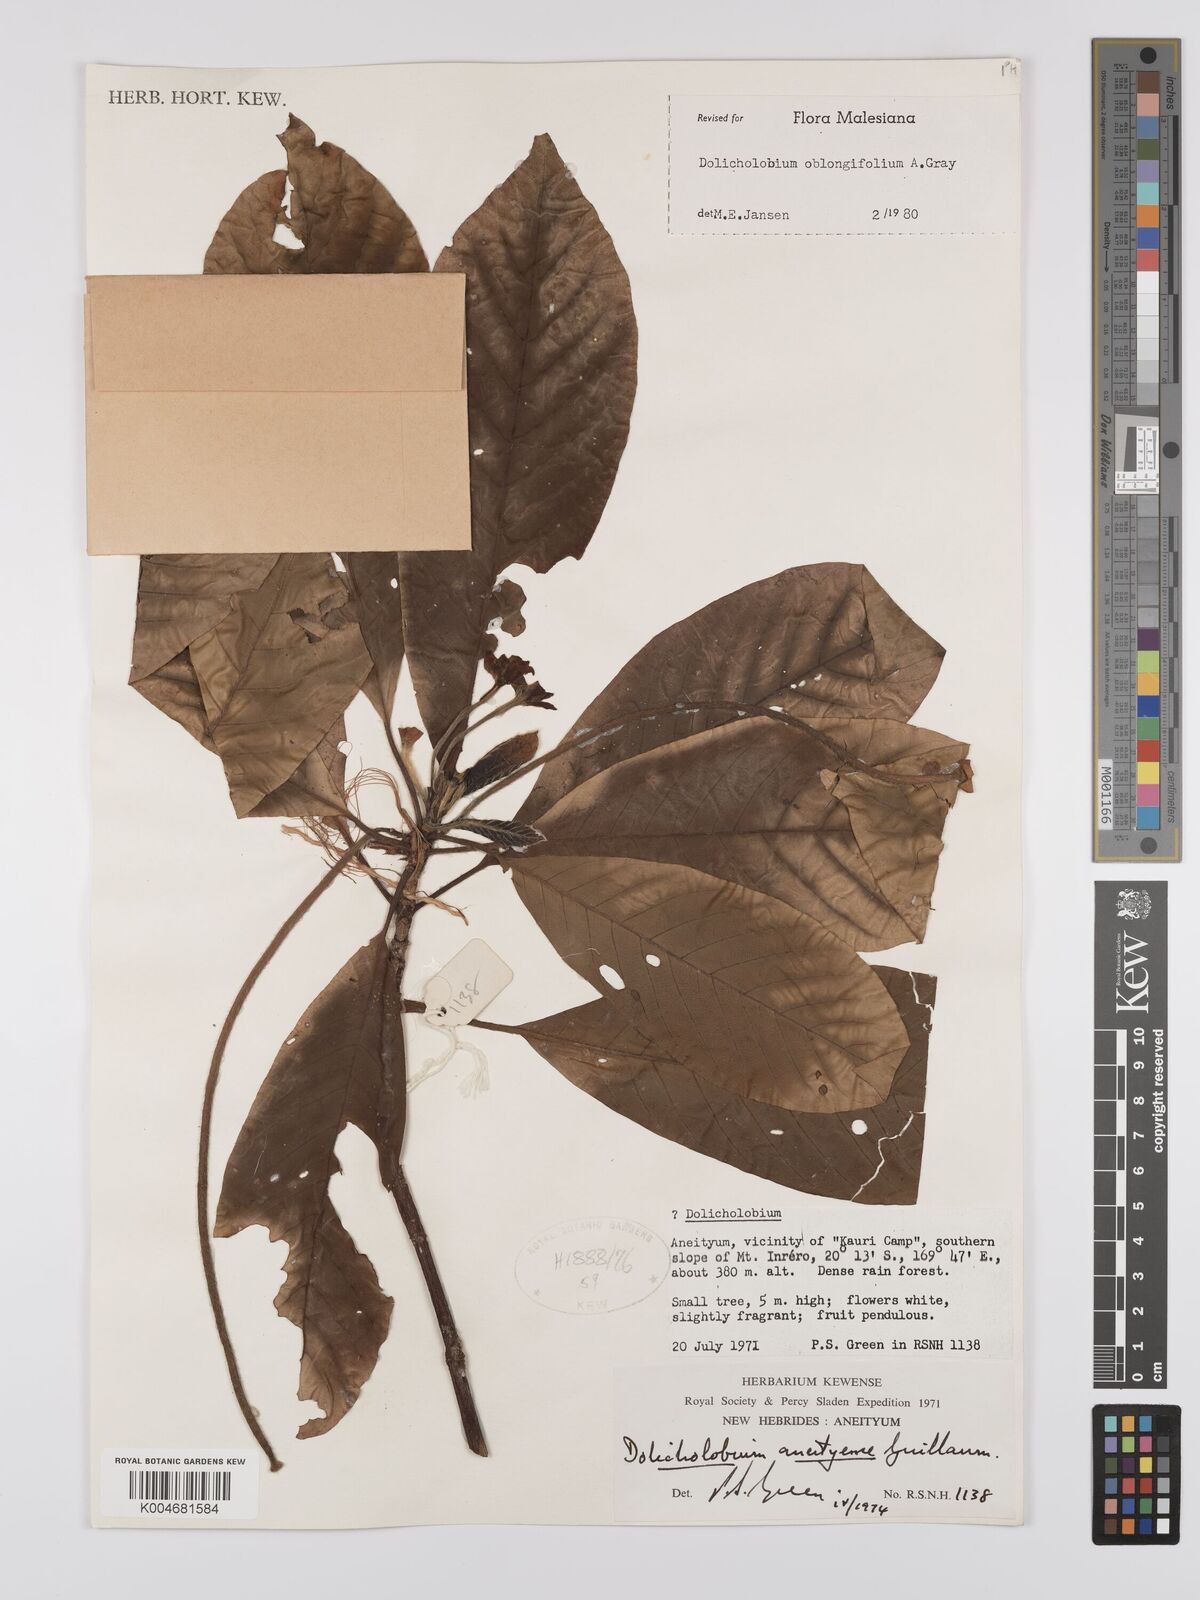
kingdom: Plantae
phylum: Tracheophyta
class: Magnoliopsida
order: Gentianales
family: Rubiaceae
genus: Dolicholobium
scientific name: Dolicholobium oblongifolium
